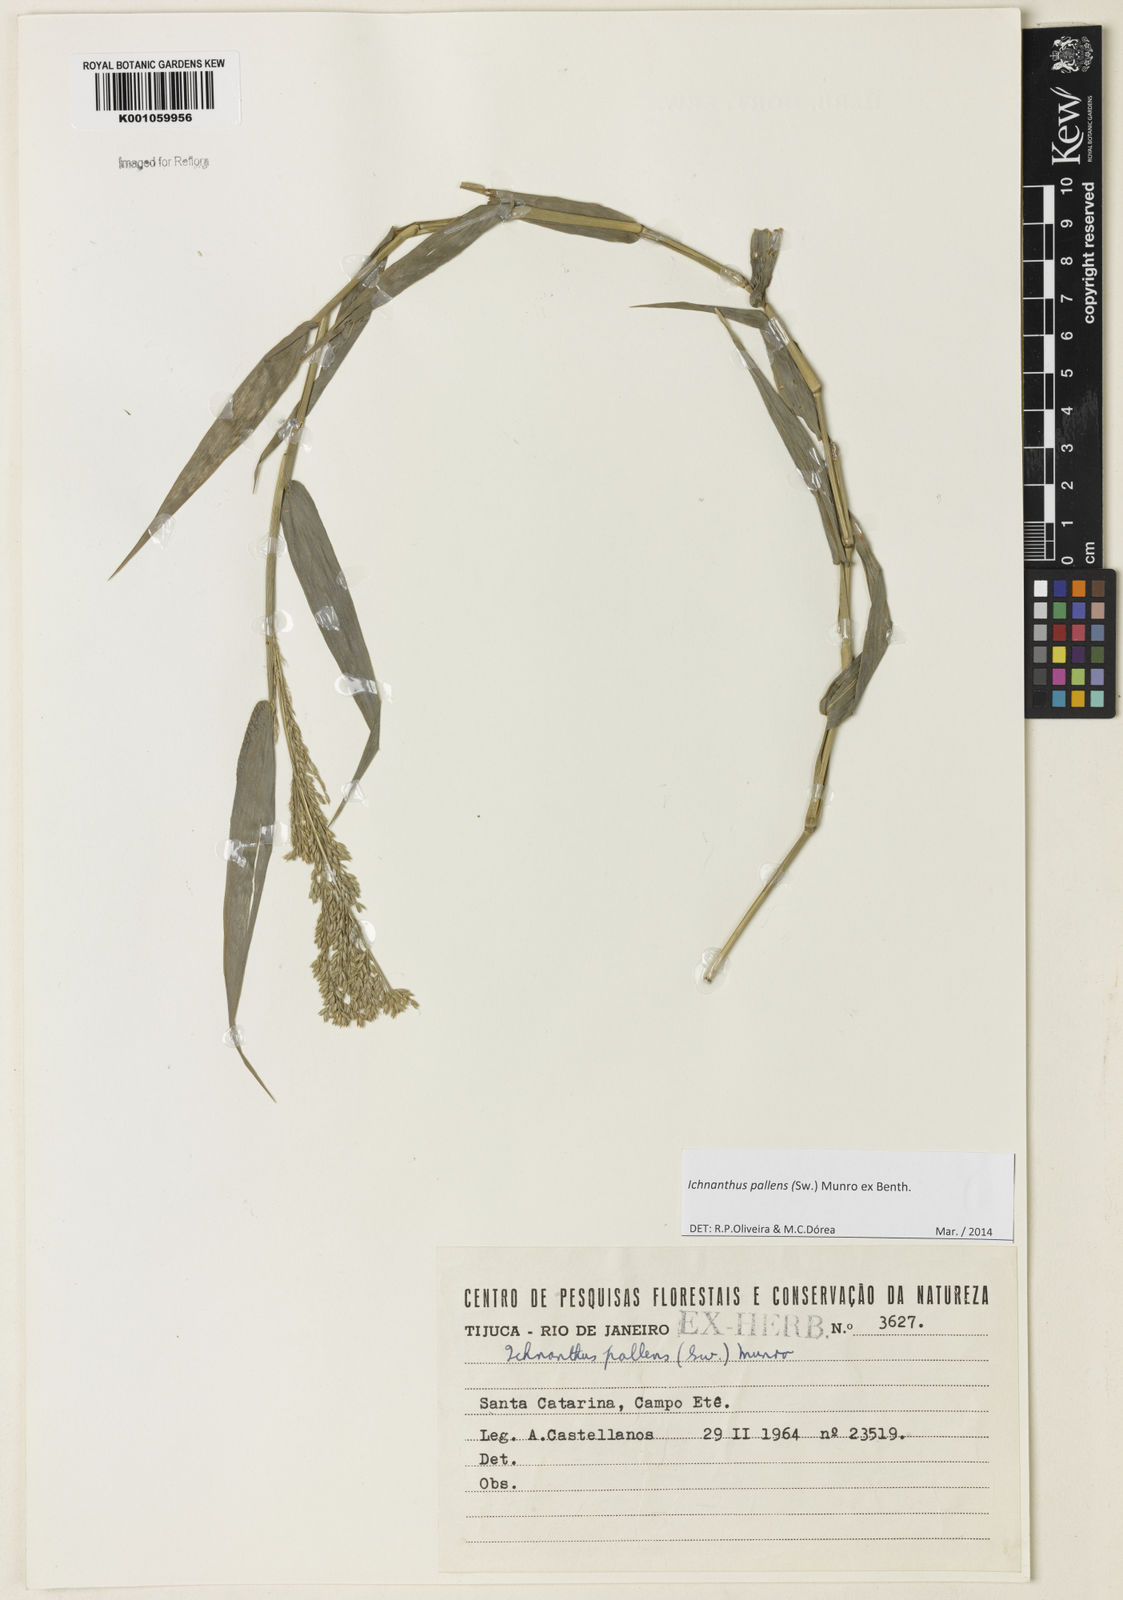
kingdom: Plantae
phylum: Tracheophyta
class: Liliopsida
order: Poales
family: Poaceae
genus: Ichnanthus
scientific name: Ichnanthus pallens
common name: Water grass
